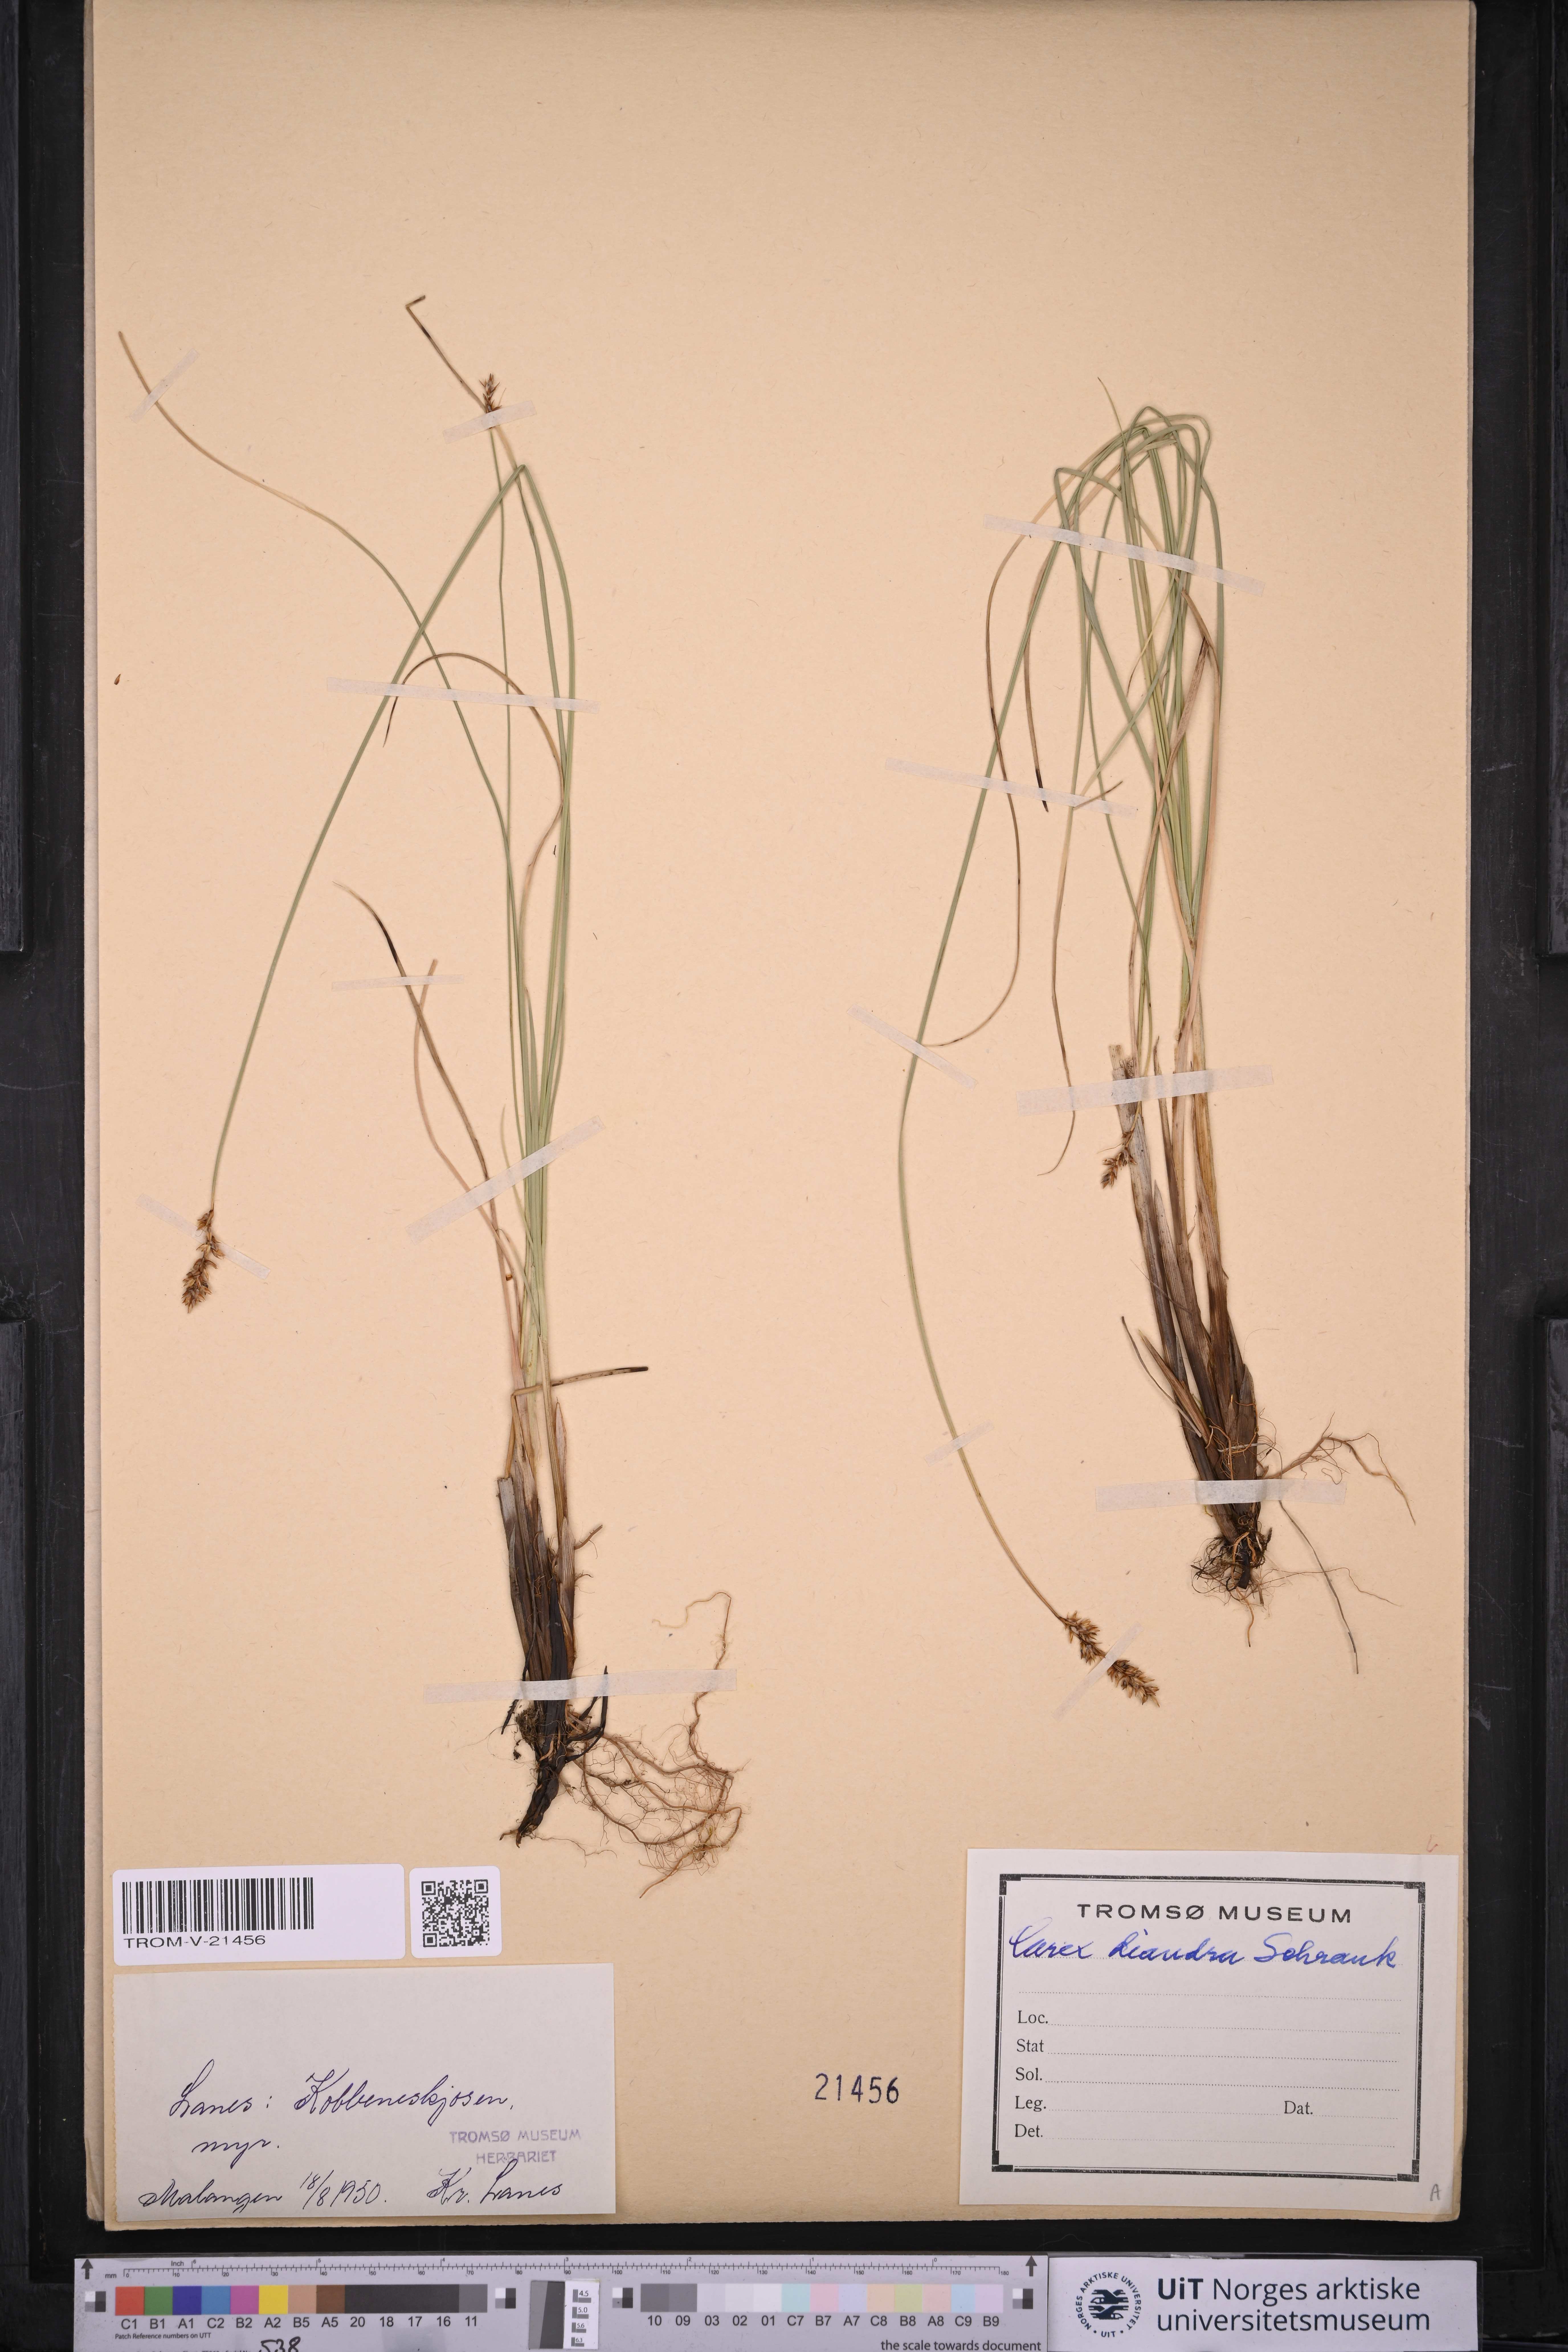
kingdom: Plantae
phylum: Tracheophyta
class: Liliopsida
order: Poales
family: Cyperaceae
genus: Carex
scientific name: Carex diandra
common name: Lesser tussock-sedge
